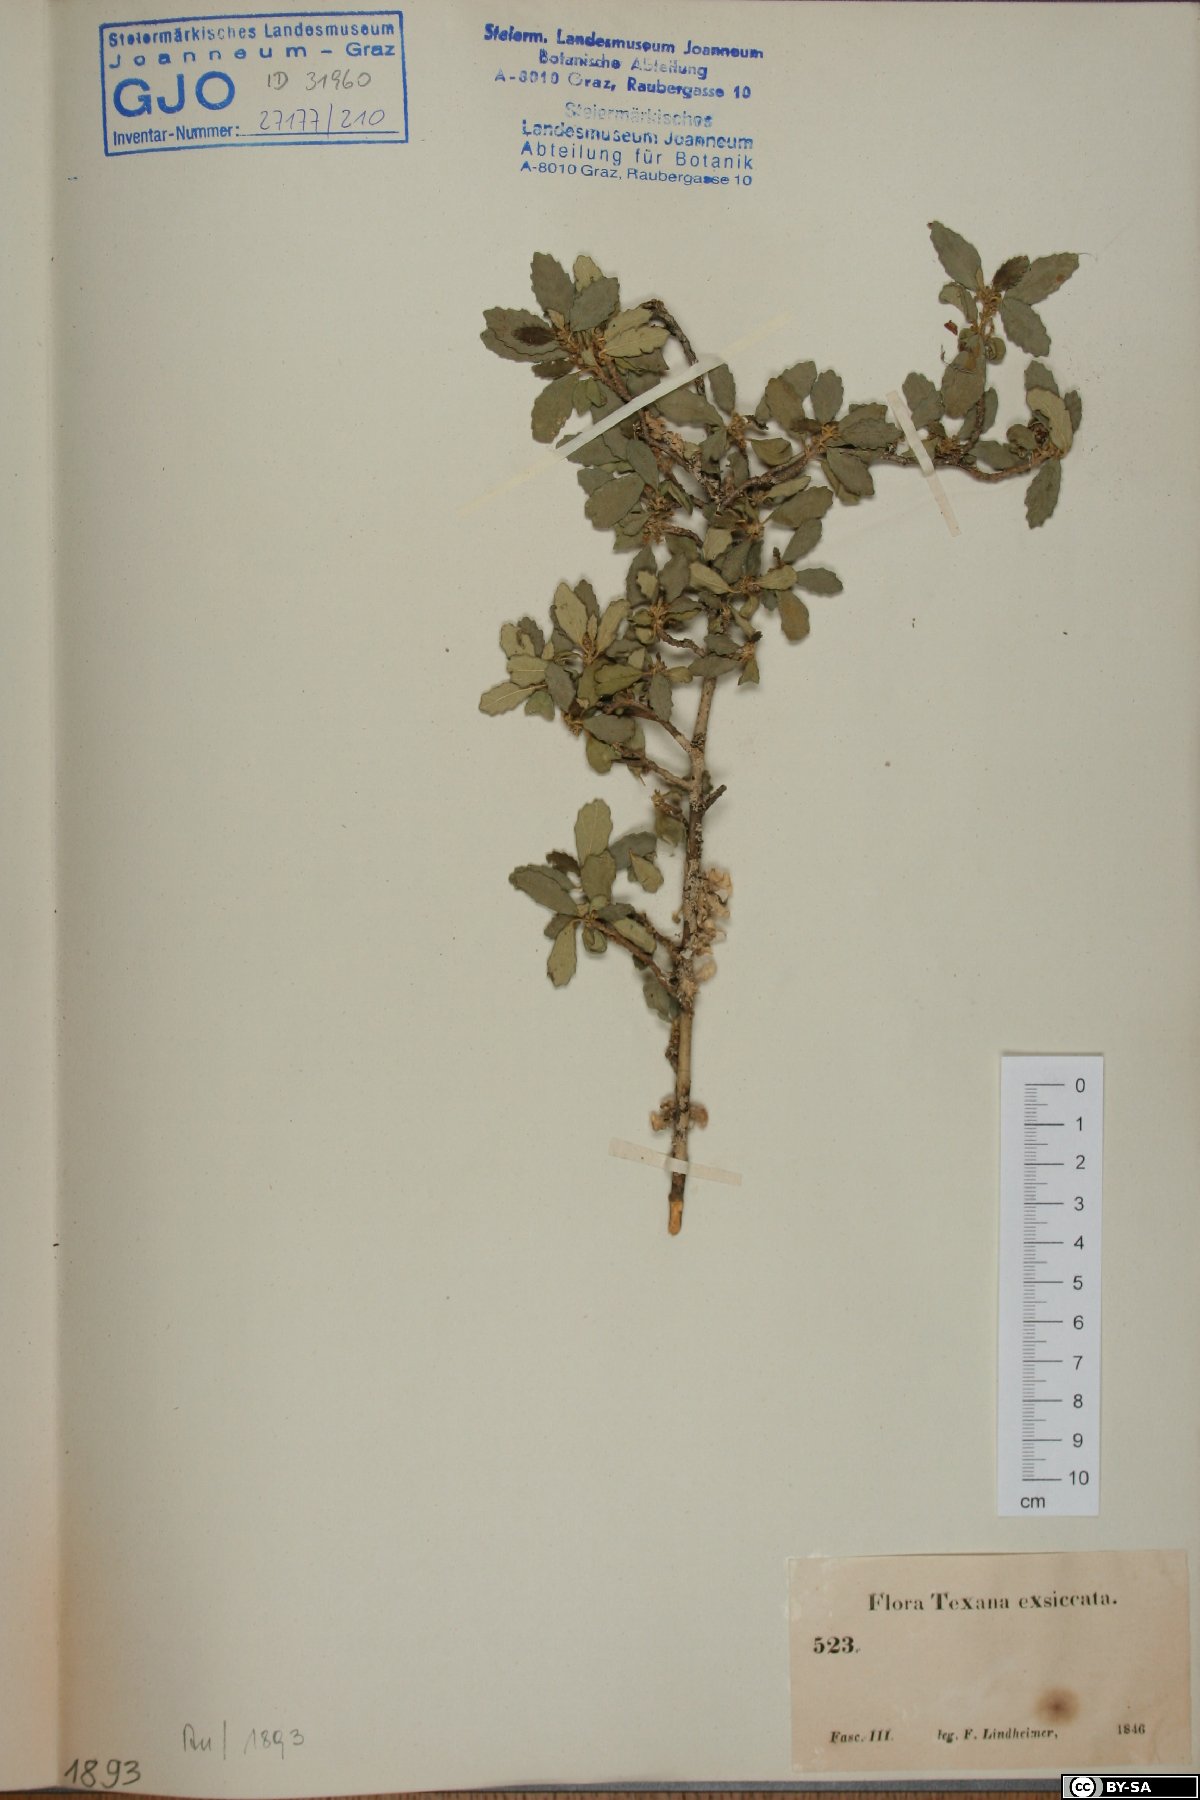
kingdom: Plantae
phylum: Tracheophyta
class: Magnoliopsida
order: Fagales
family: Fagaceae
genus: Quercus
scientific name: Quercus
